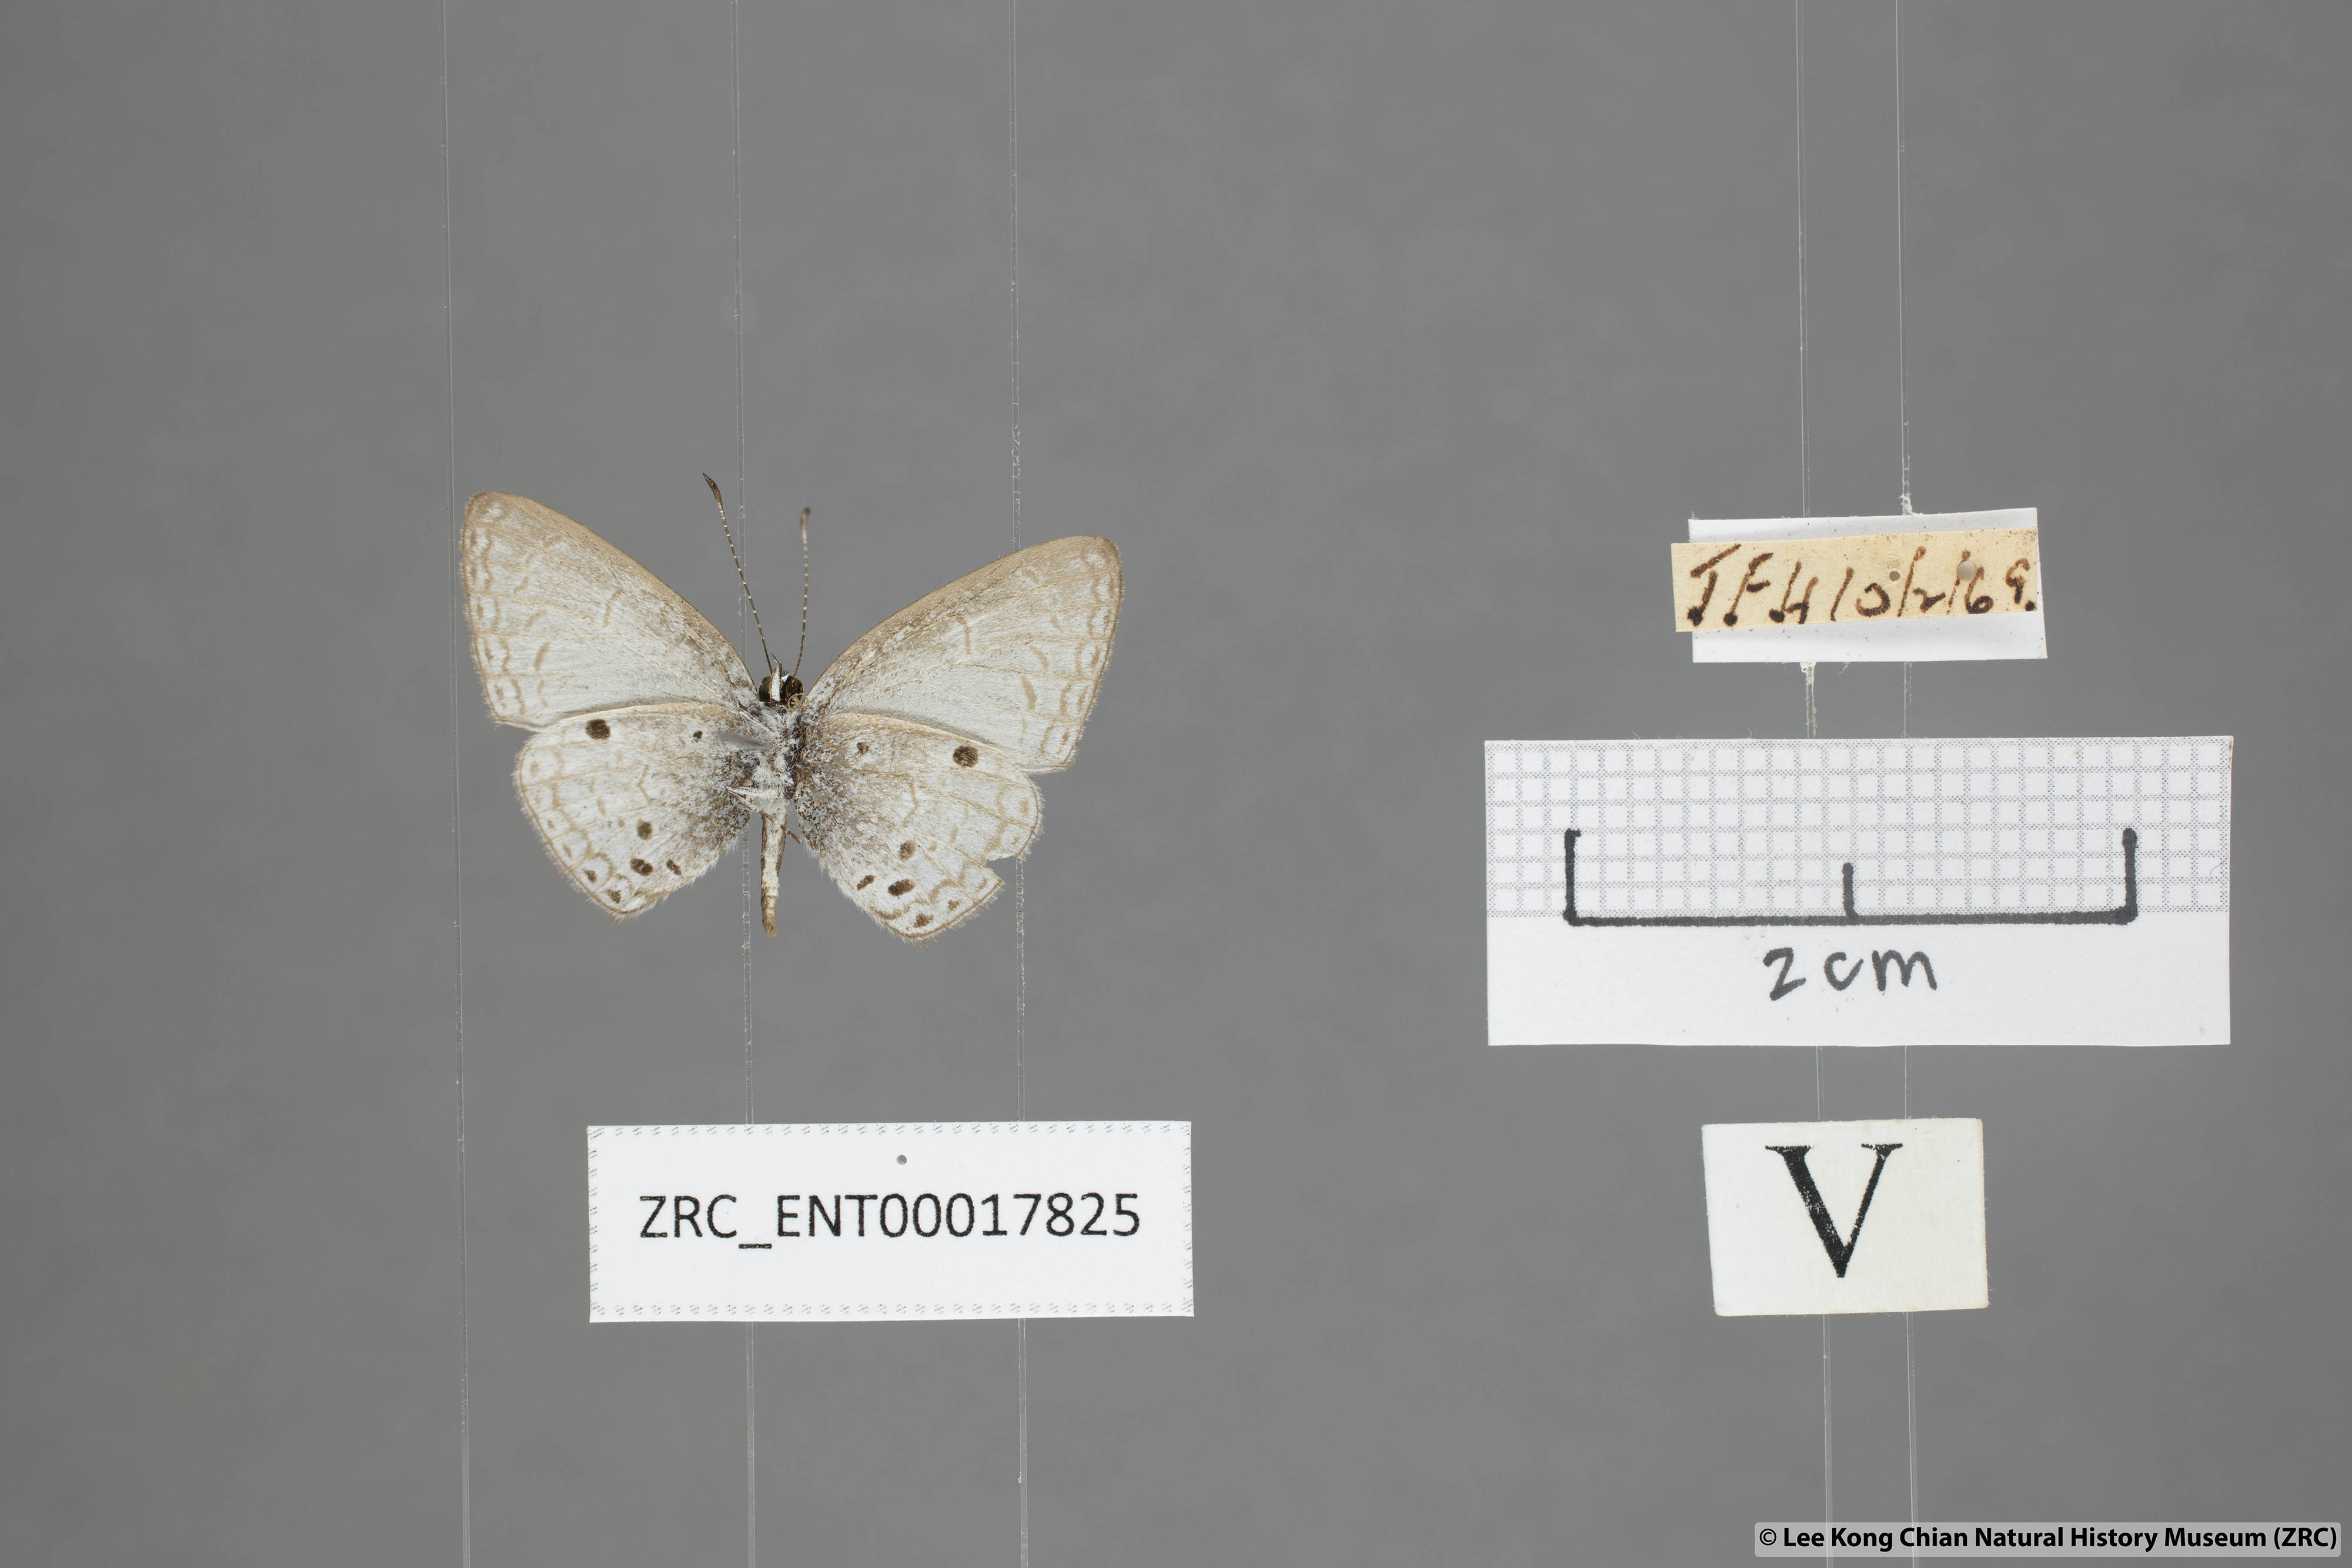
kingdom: Animalia
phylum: Arthropoda
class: Insecta
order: Lepidoptera
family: Lycaenidae
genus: Cebrella
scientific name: Cebrella
